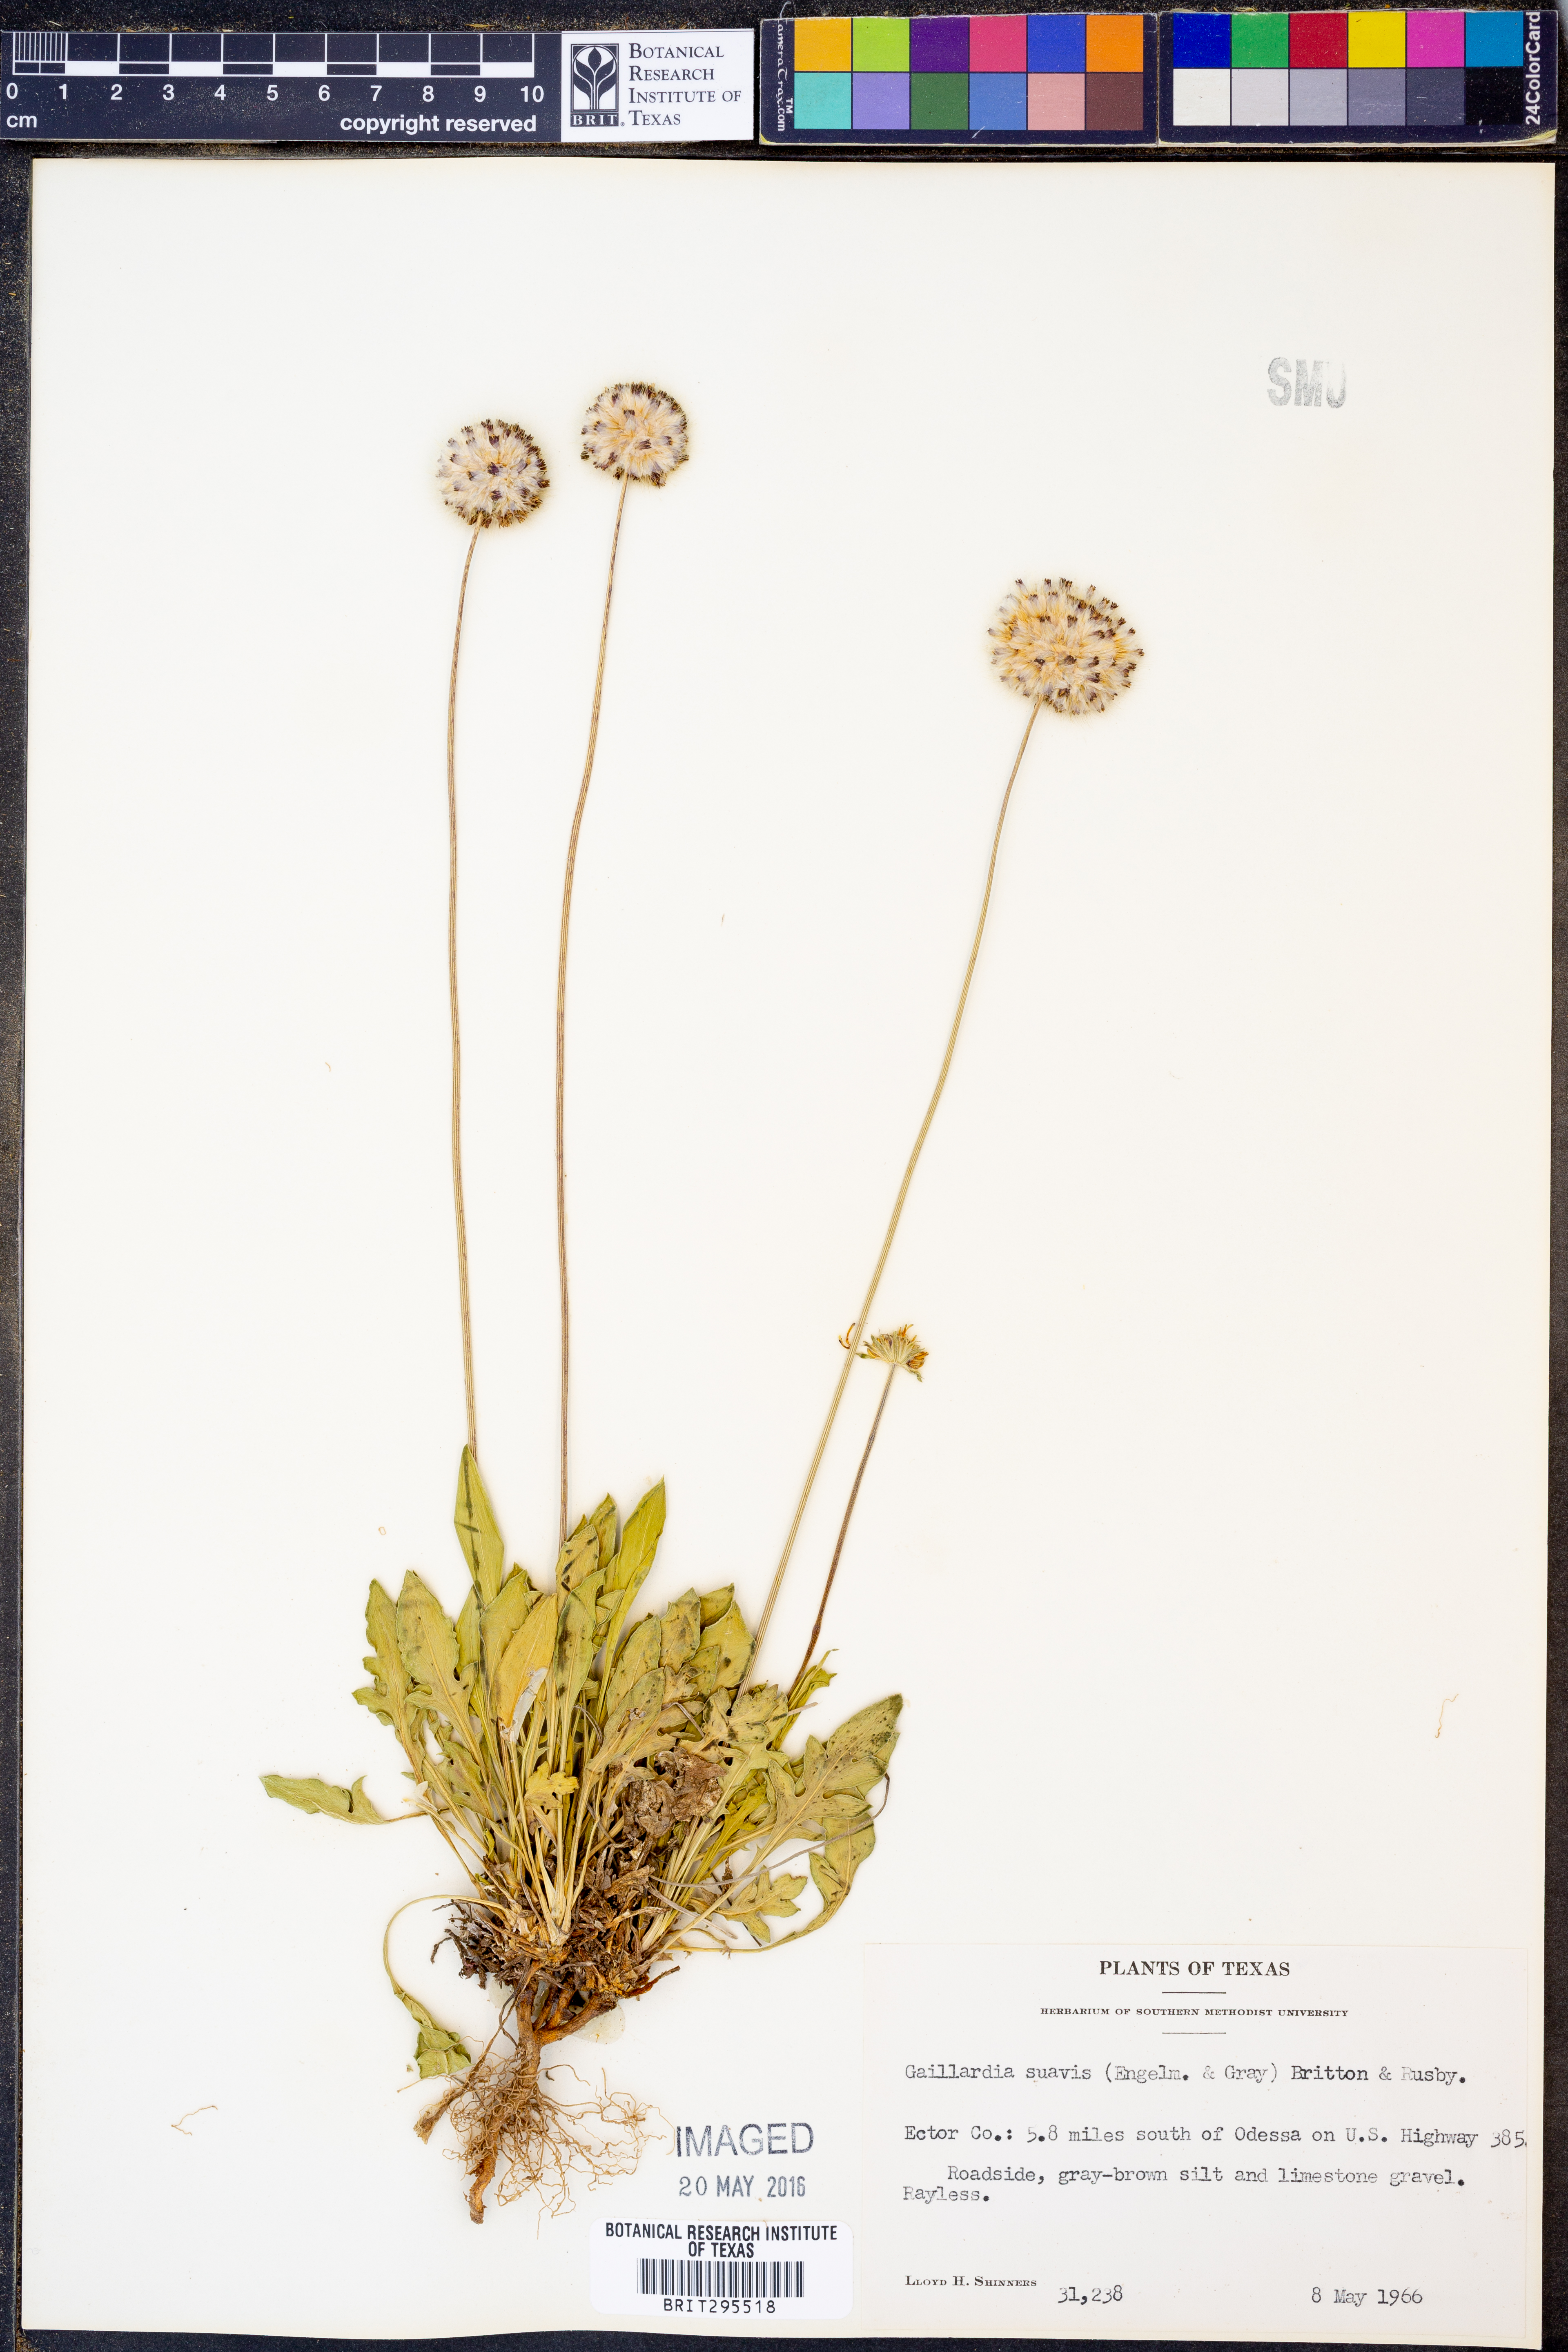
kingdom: Plantae
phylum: Tracheophyta
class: Magnoliopsida
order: Asterales
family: Asteraceae
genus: Gaillardia
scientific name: Gaillardia suavis
